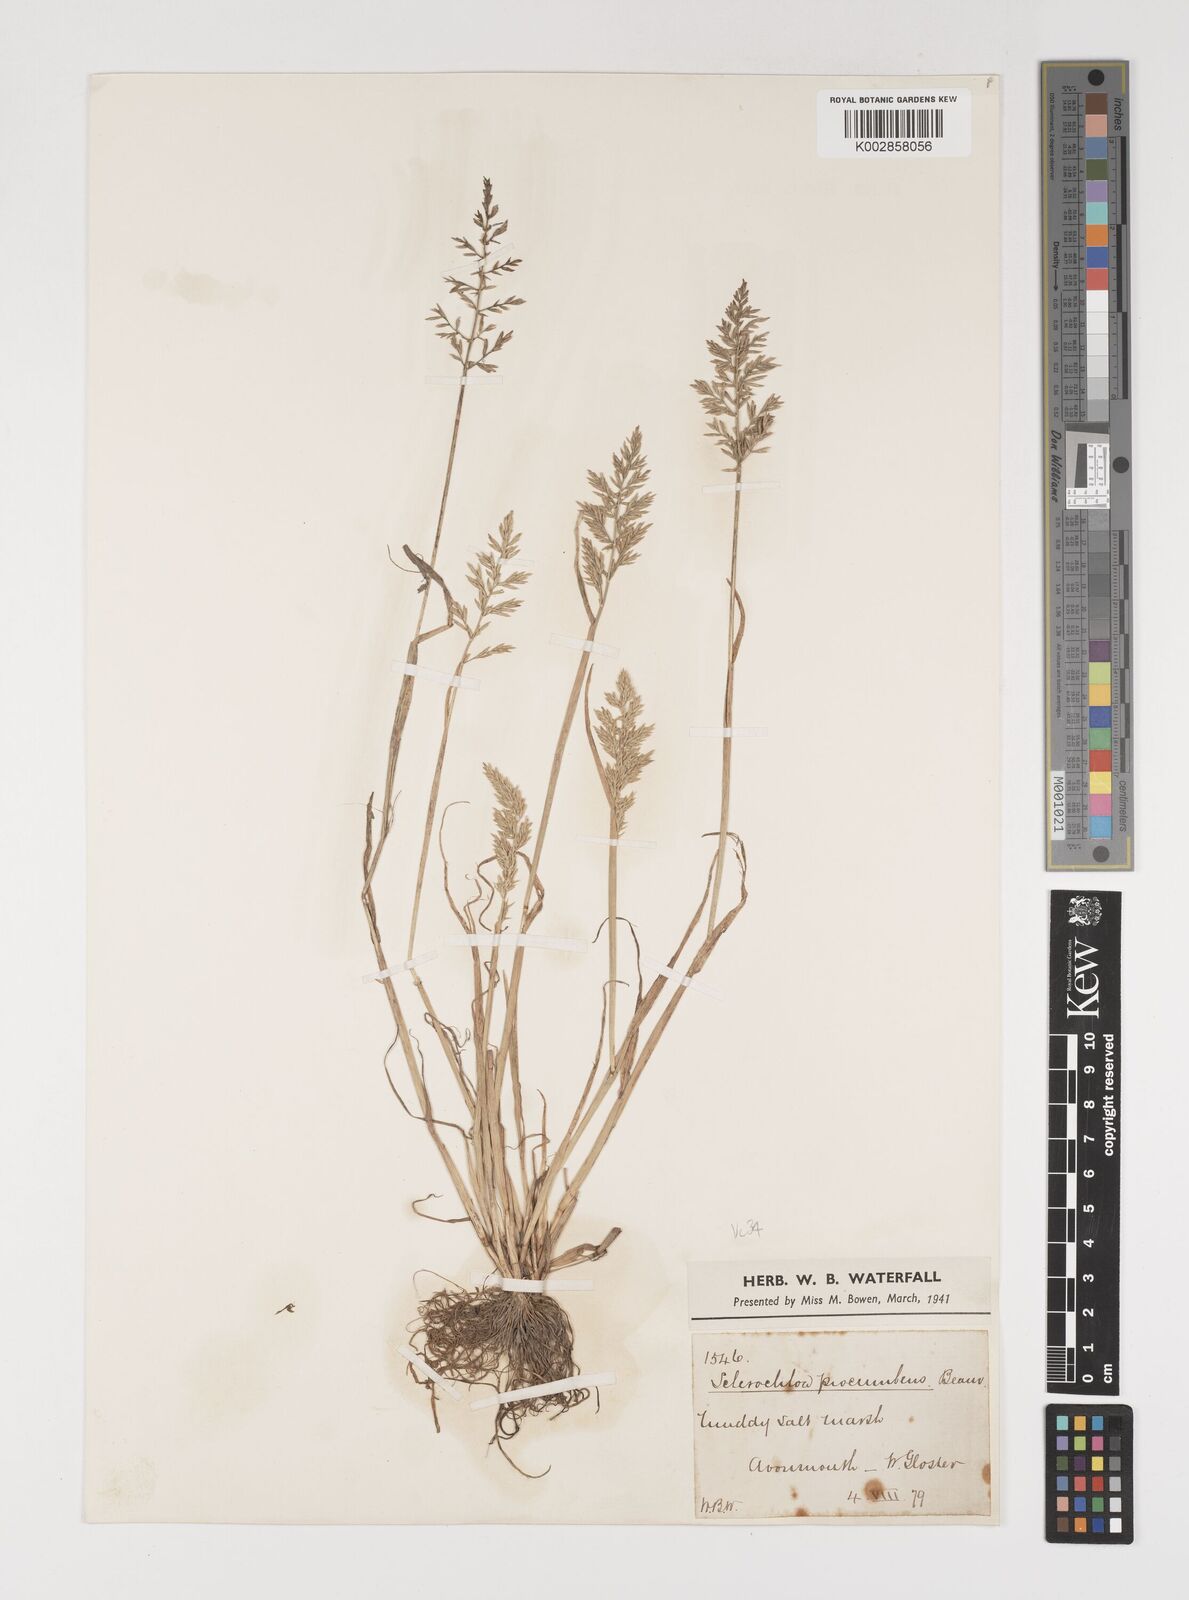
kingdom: Plantae
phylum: Tracheophyta
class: Liliopsida
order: Poales
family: Poaceae
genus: Puccinellia
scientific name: Puccinellia rupestris
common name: Stiff saltmarsh-grass
